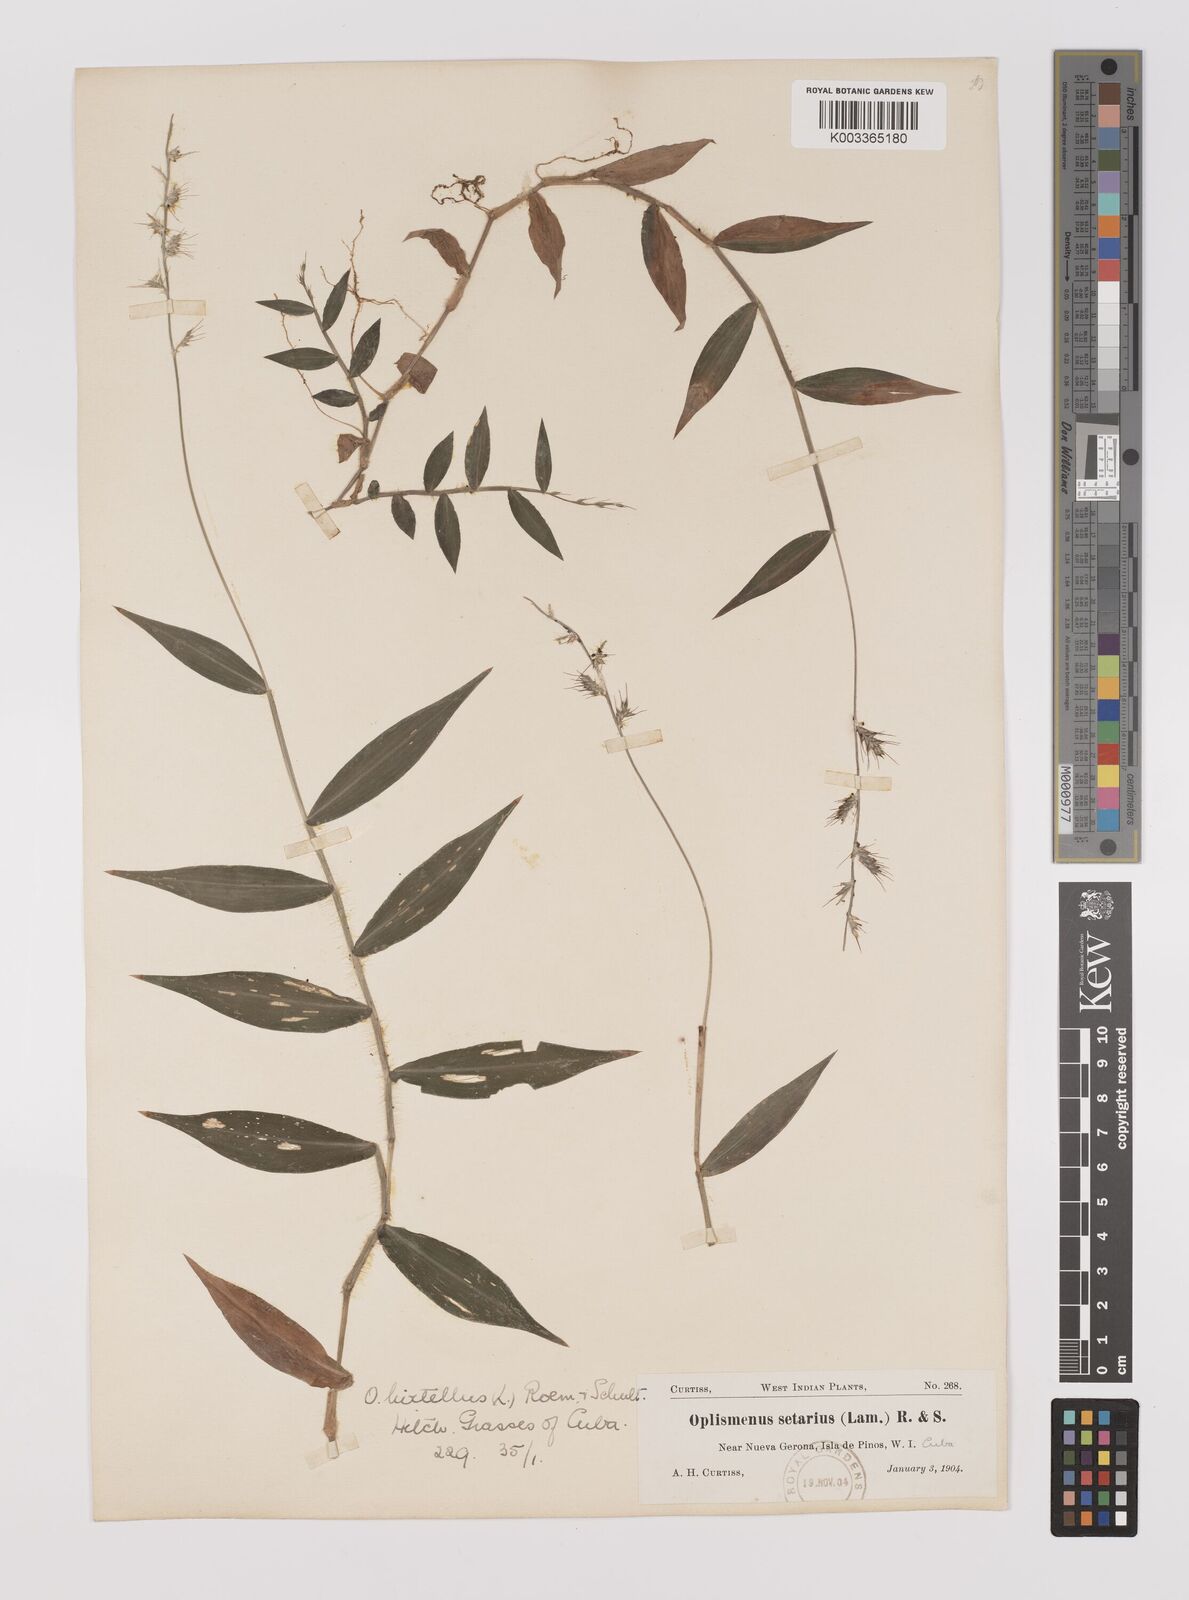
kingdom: Plantae
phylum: Tracheophyta
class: Liliopsida
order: Poales
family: Poaceae
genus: Oplismenus
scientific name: Oplismenus hirtellus
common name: Basketgrass
